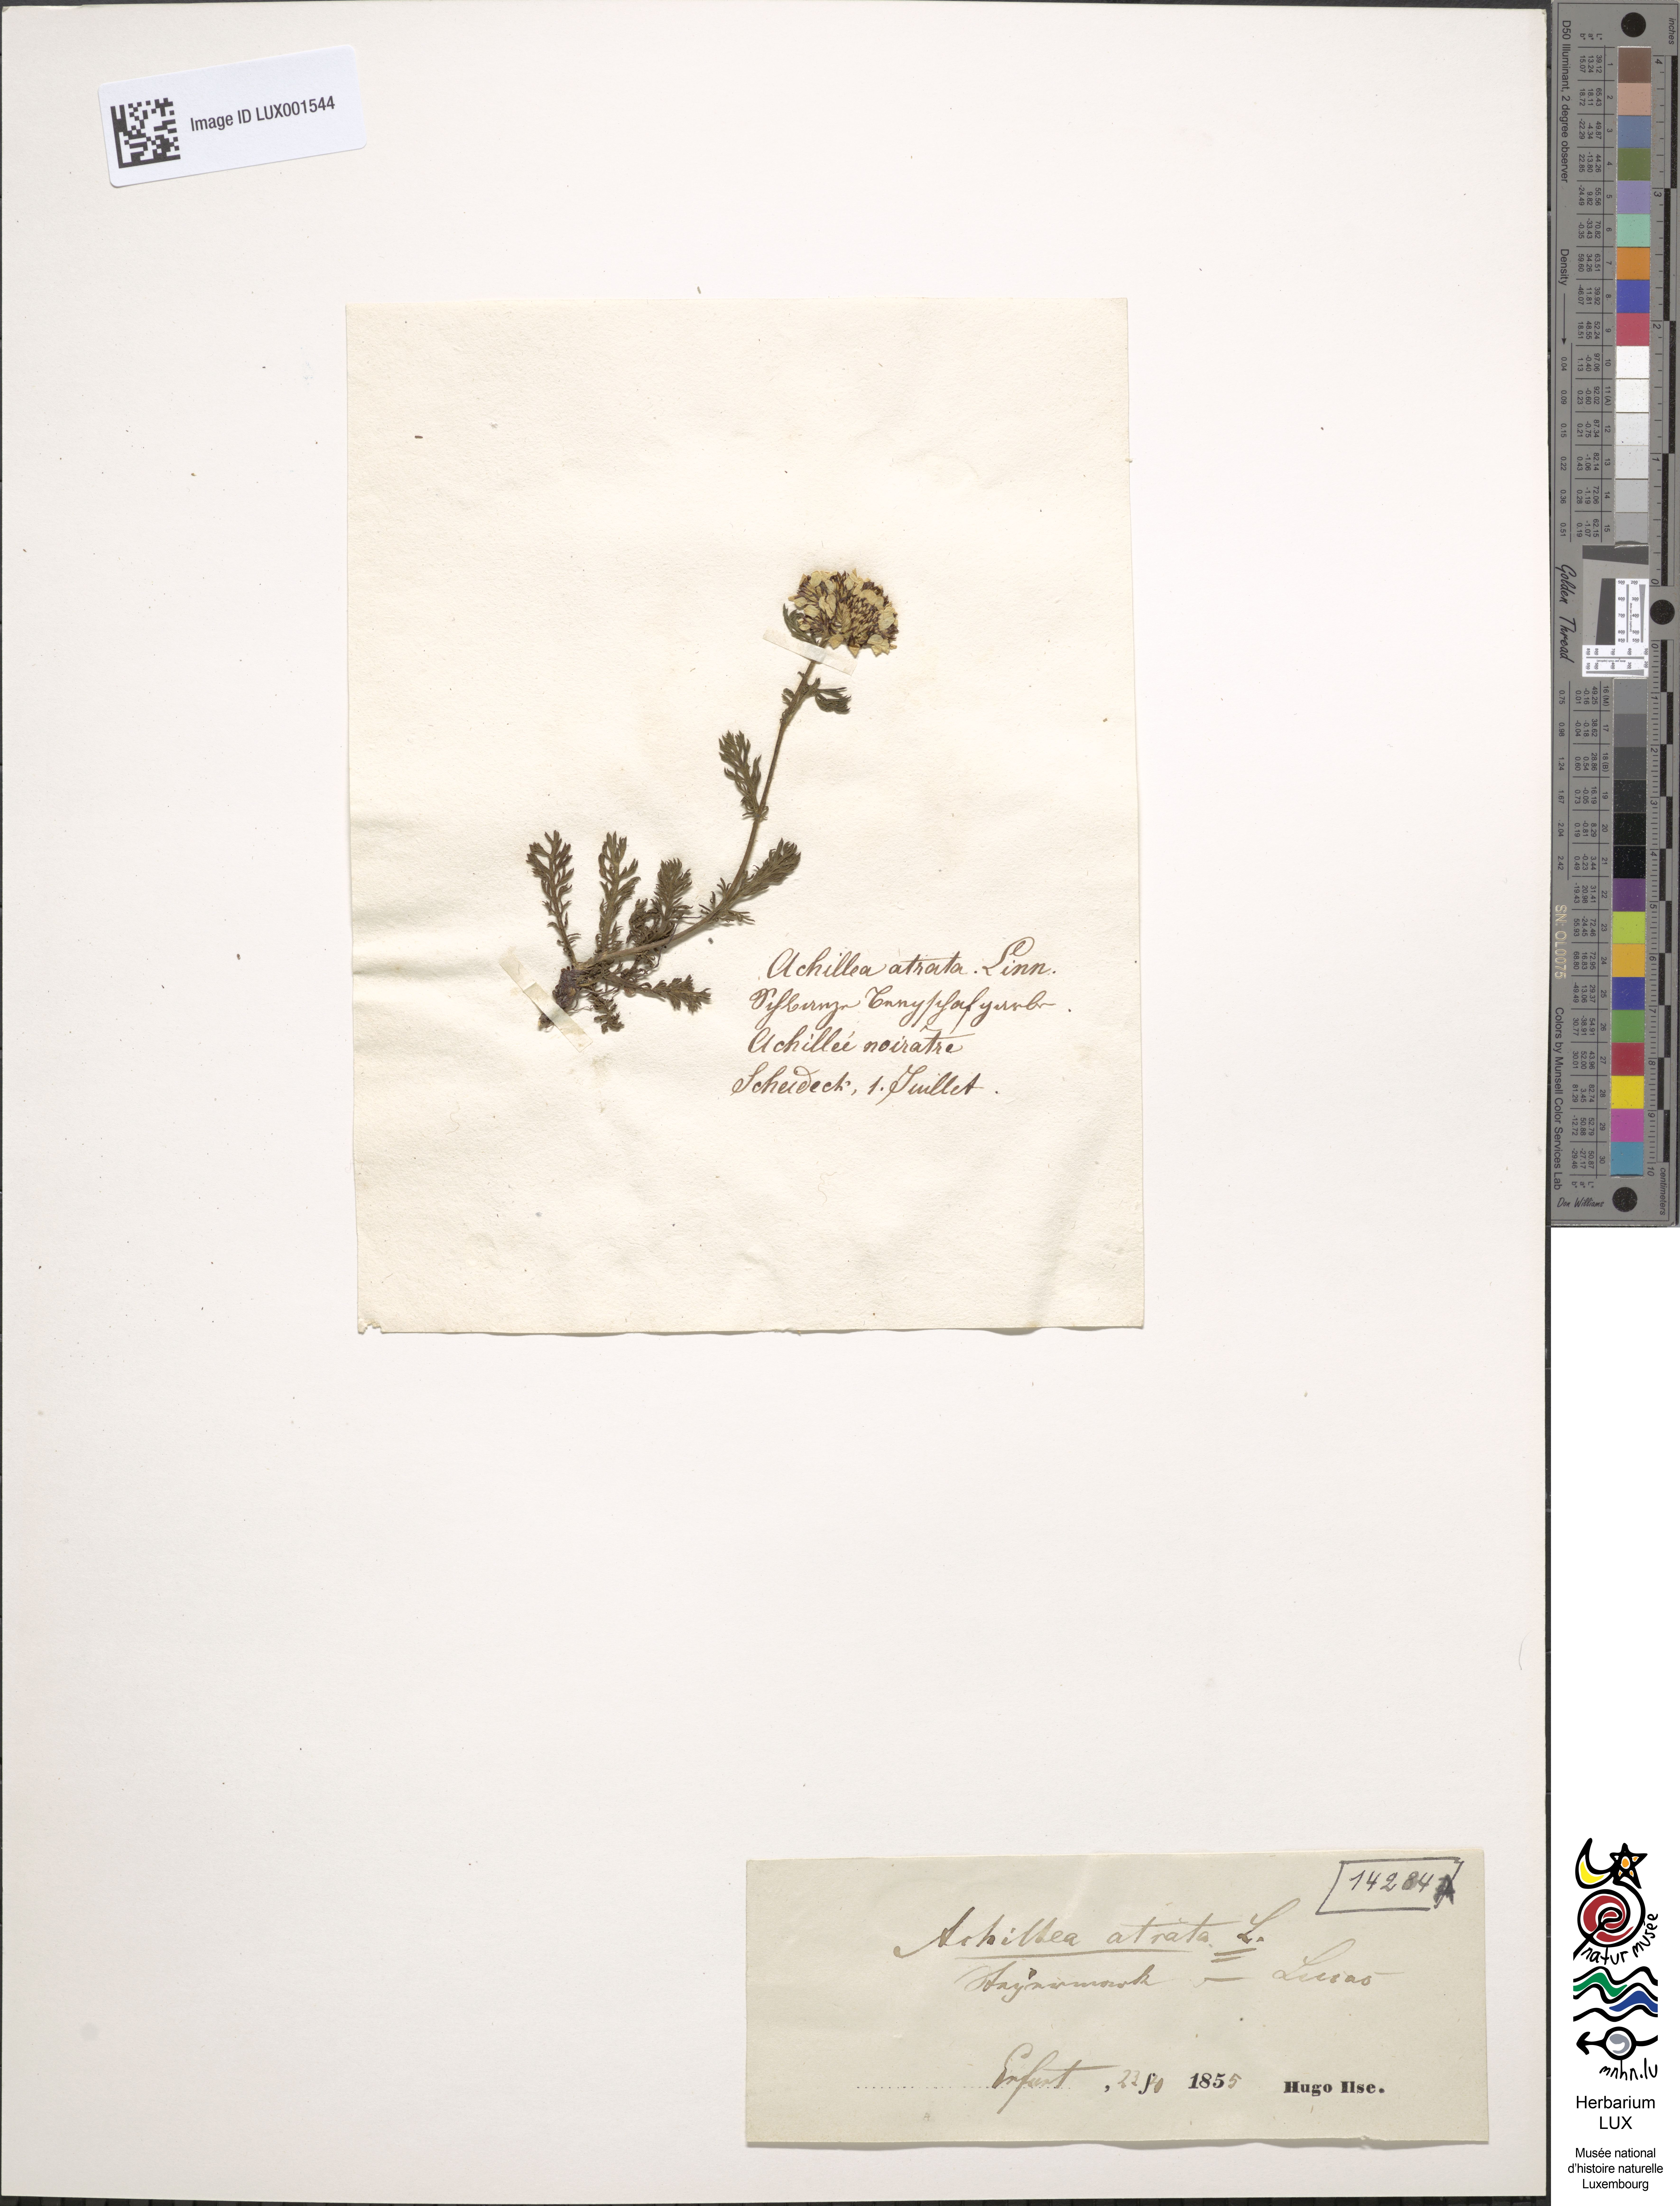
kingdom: Plantae
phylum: Tracheophyta
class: Magnoliopsida
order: Asterales
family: Asteraceae
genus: Achillea
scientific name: Achillea atrata
